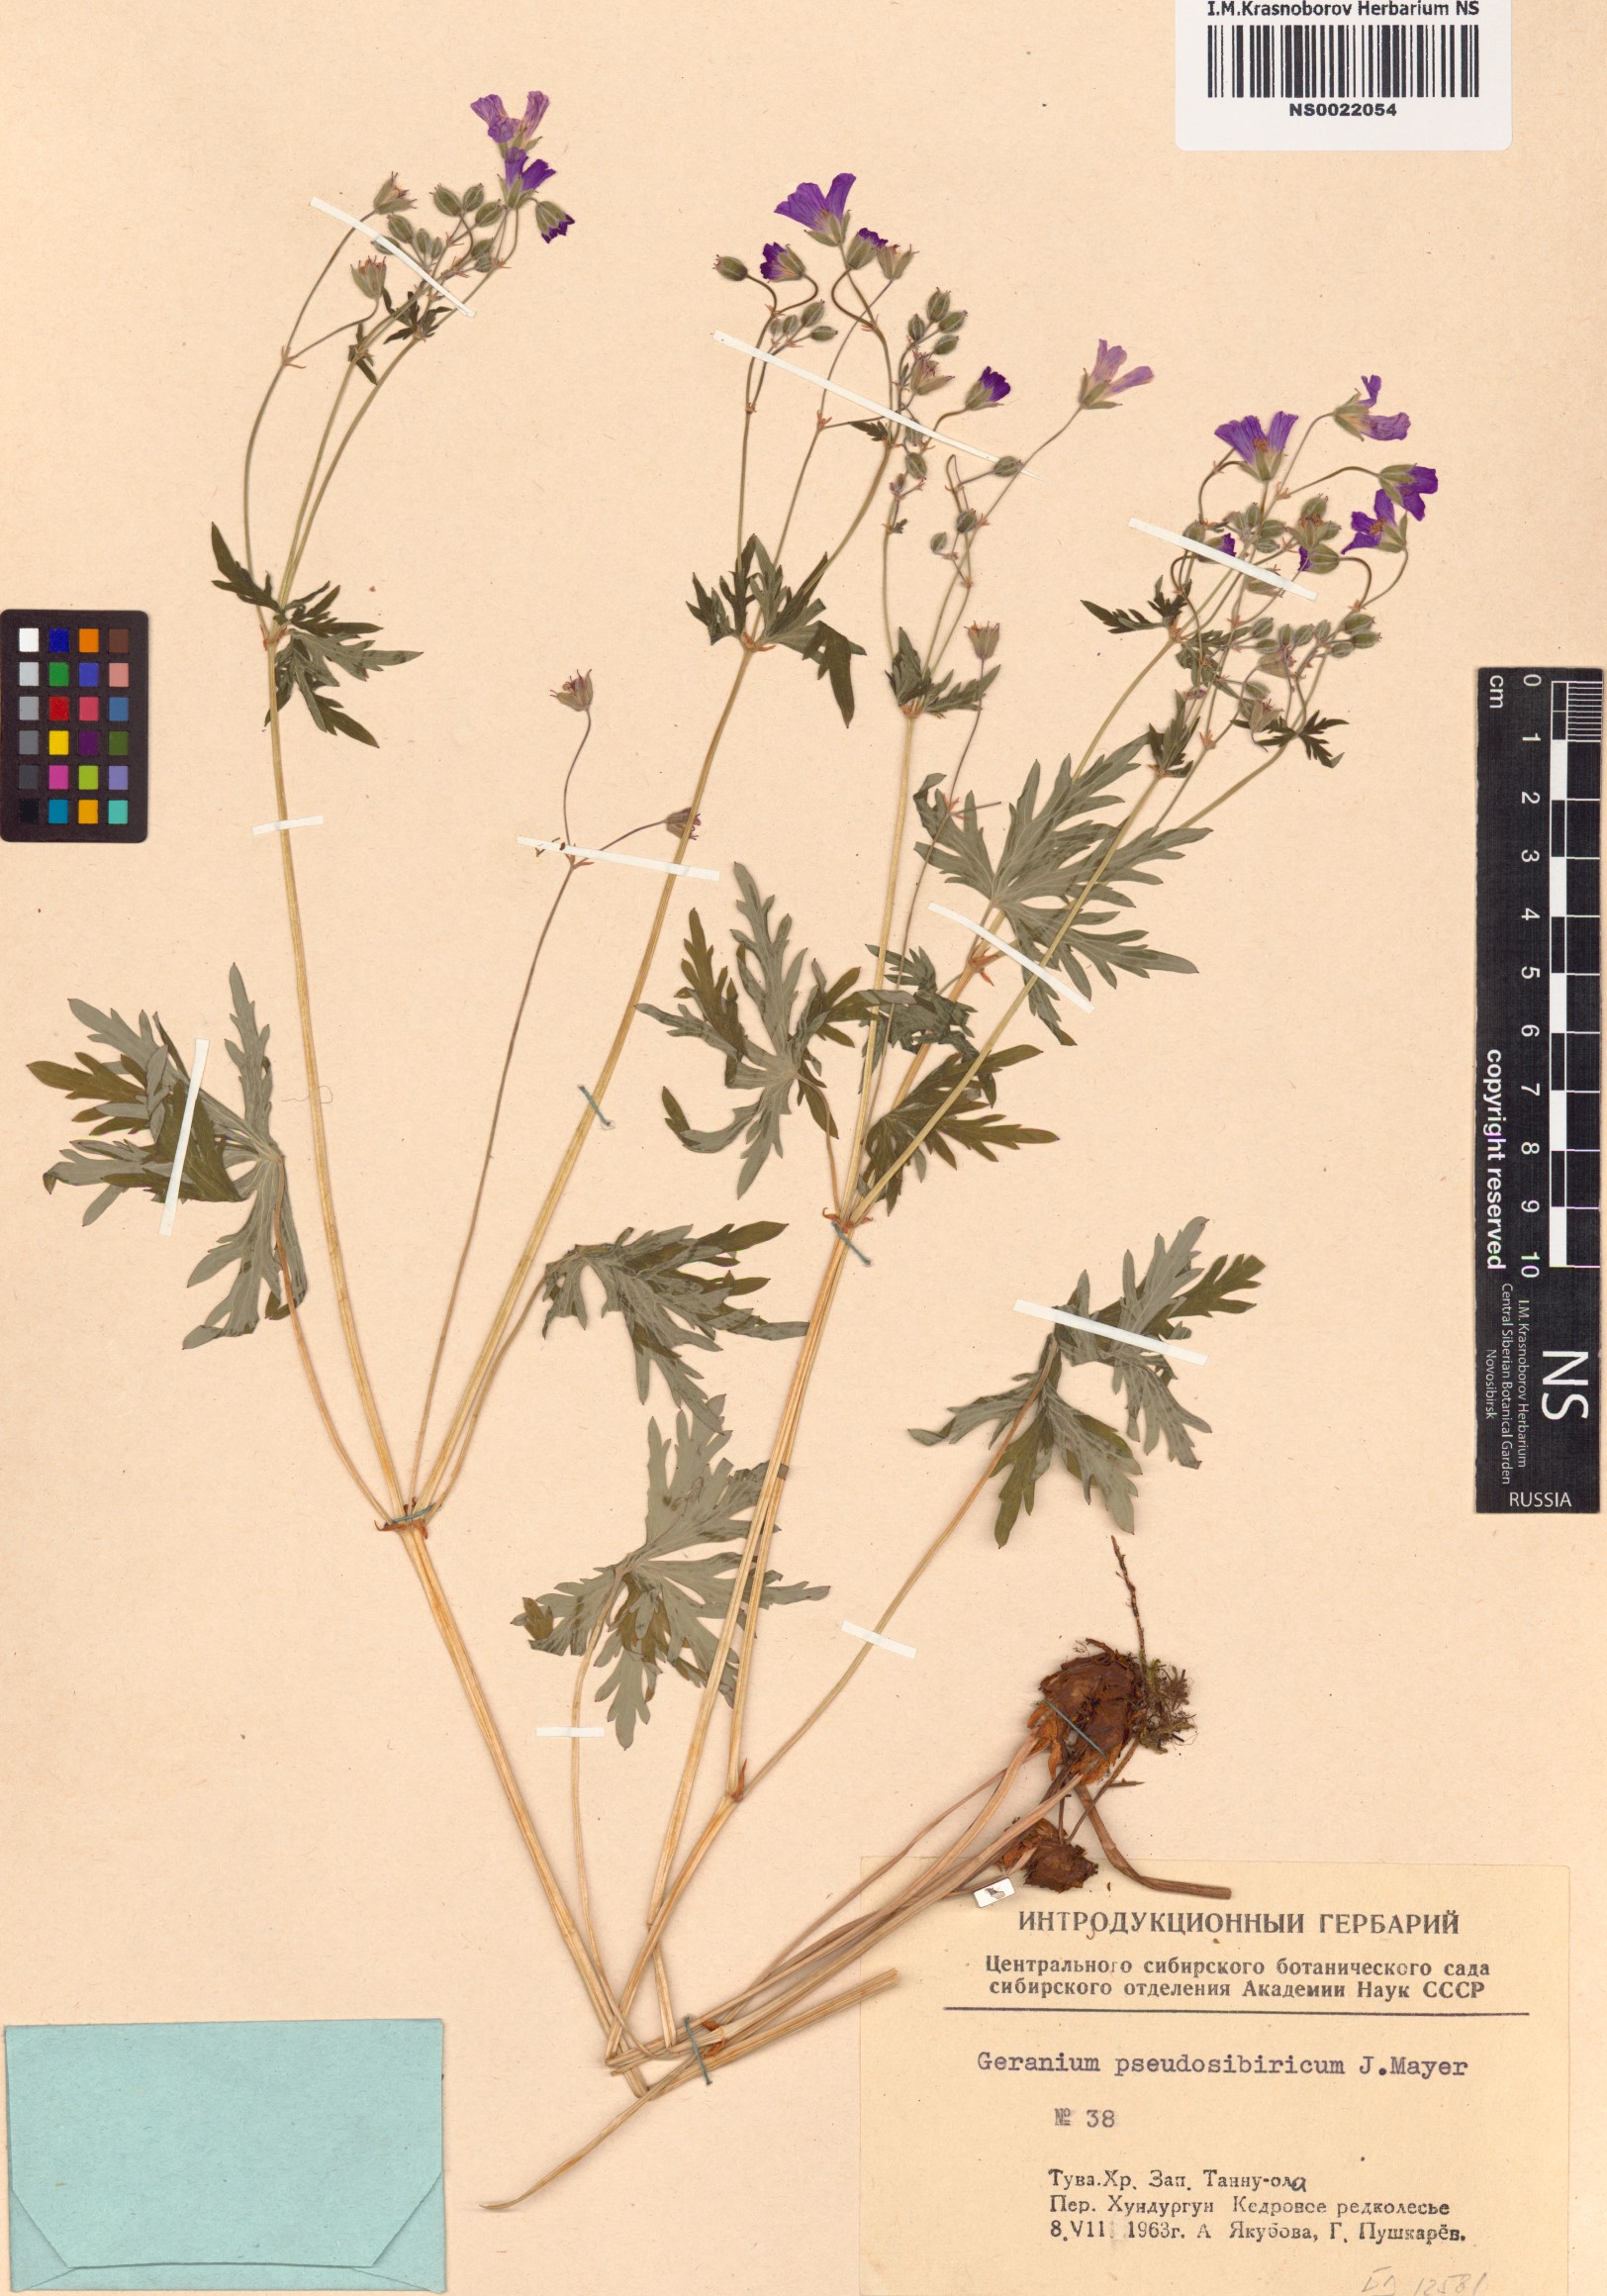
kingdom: Plantae
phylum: Tracheophyta
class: Magnoliopsida
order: Geraniales
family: Geraniaceae
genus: Geranium
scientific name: Geranium pseudosibiricum
